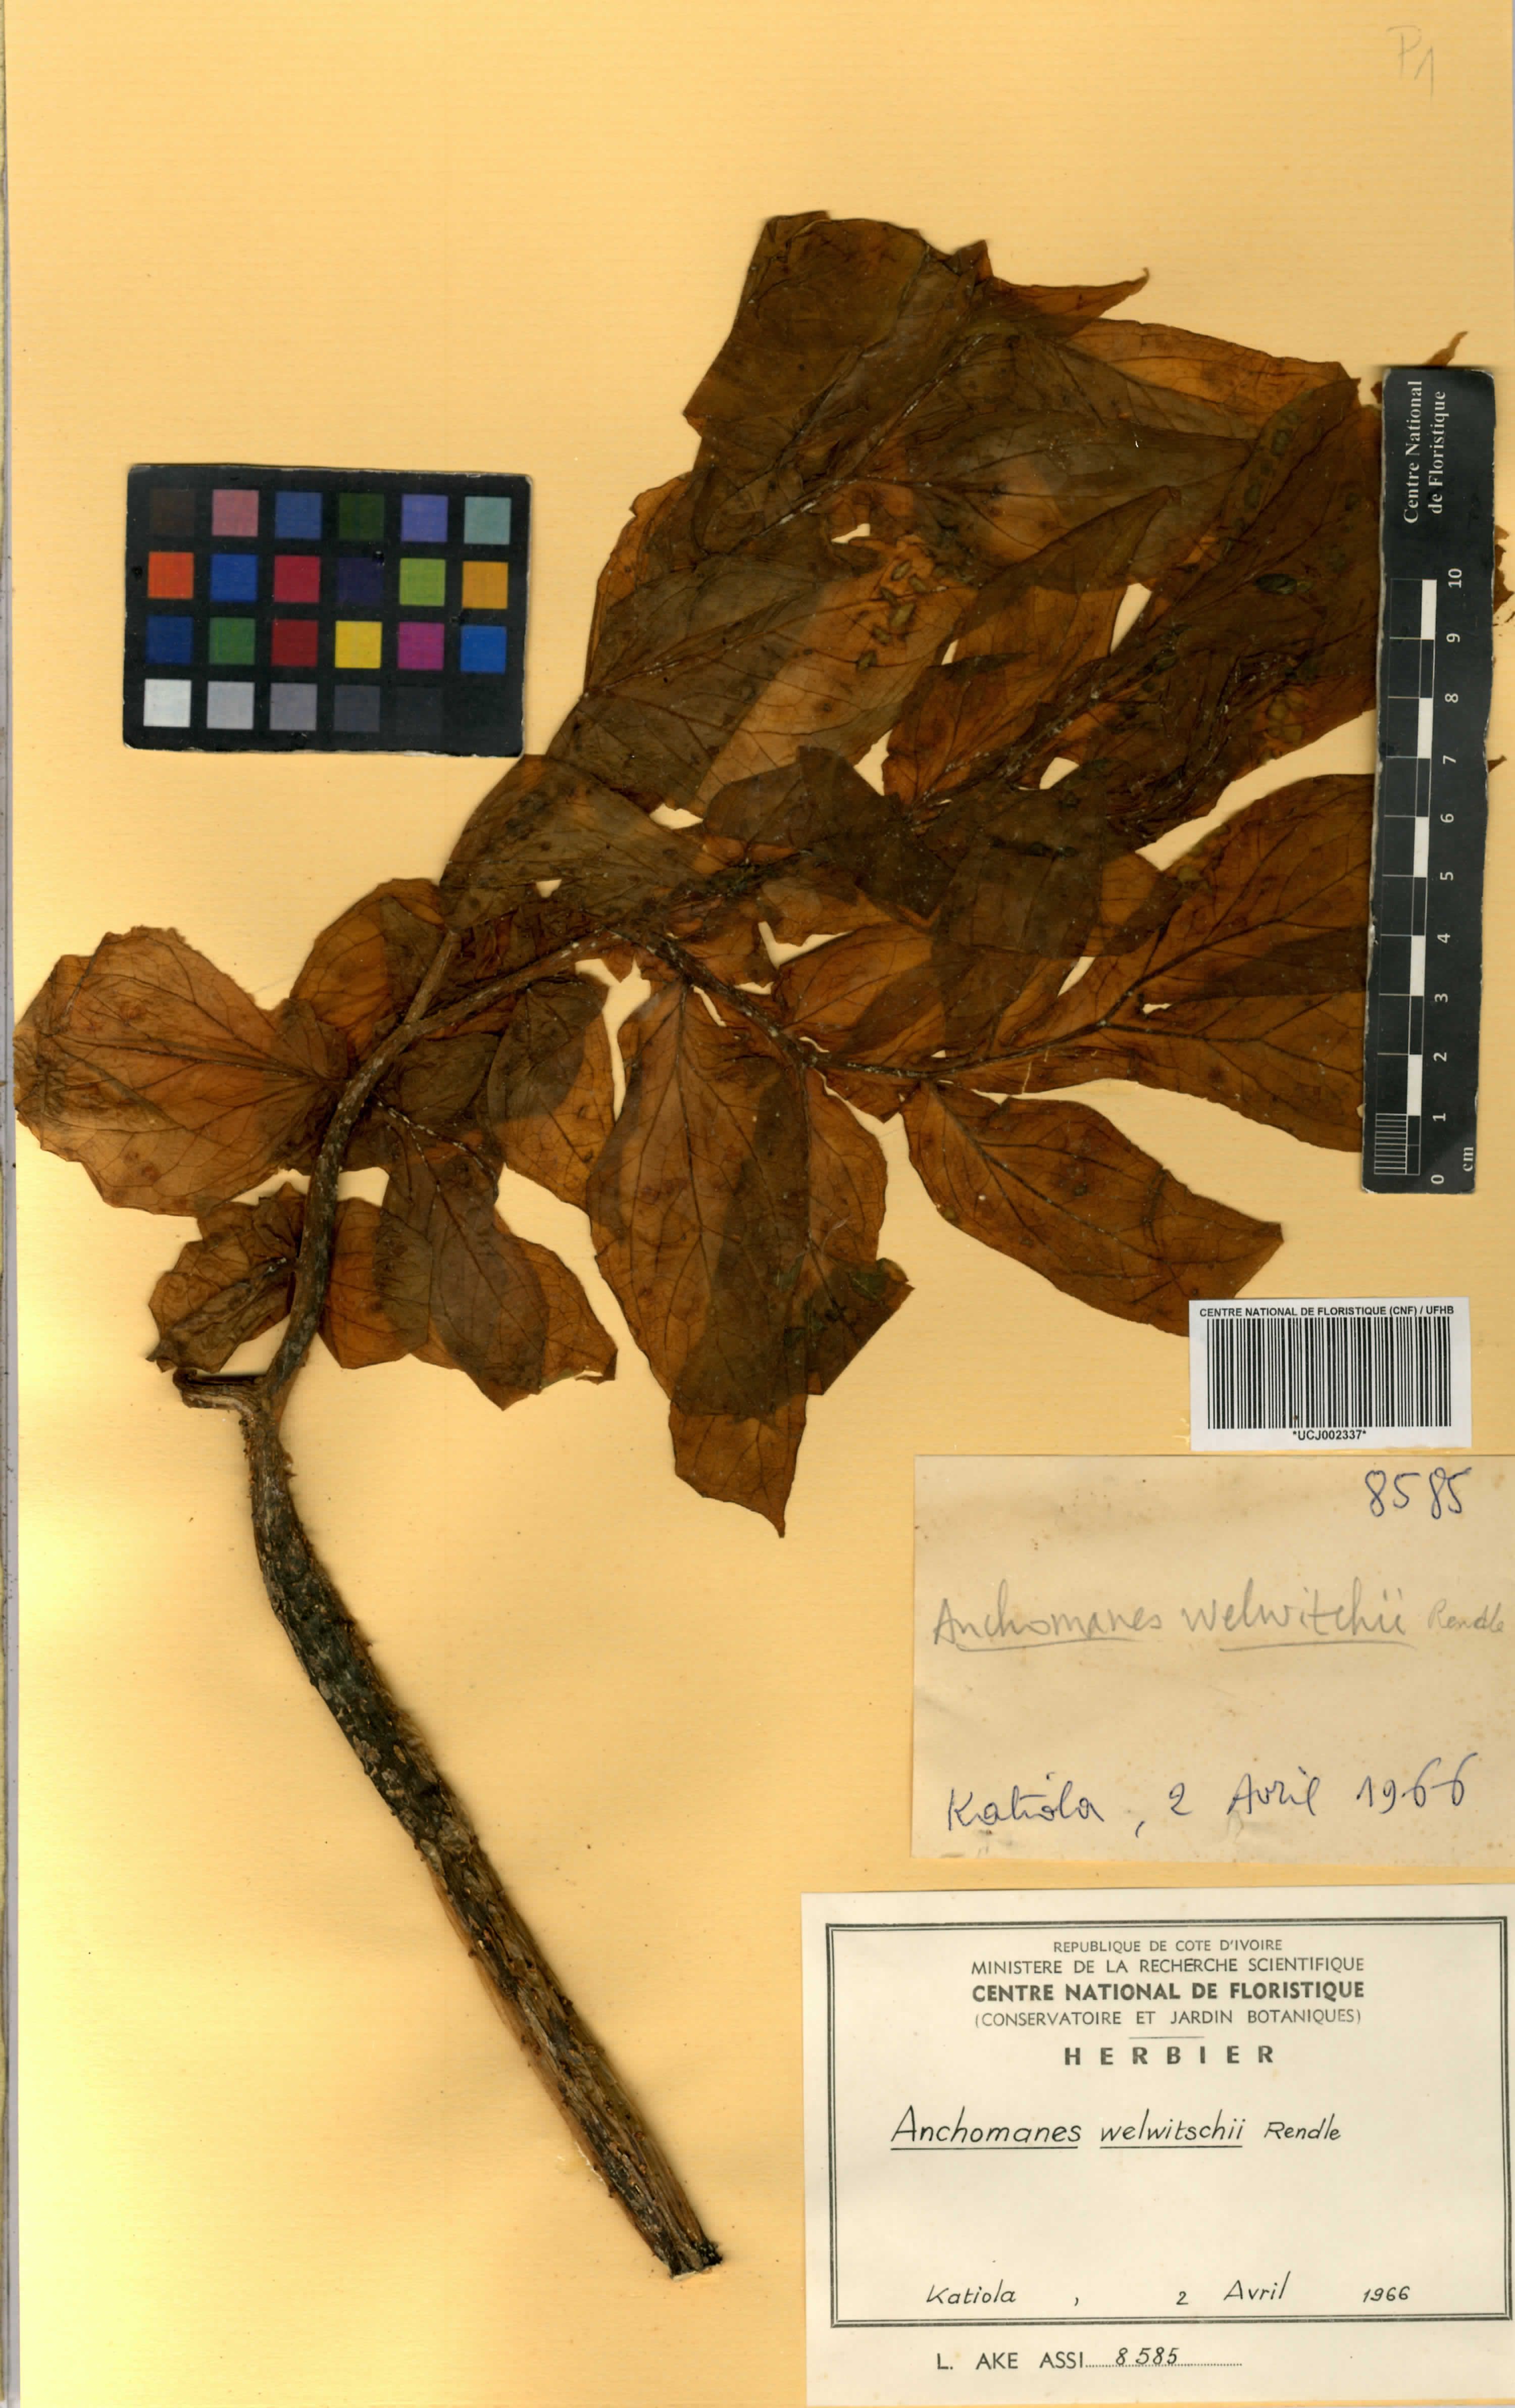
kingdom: Plantae
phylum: Tracheophyta
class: Liliopsida
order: Alismatales
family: Araceae
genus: Anchomanes
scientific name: Anchomanes difformis
